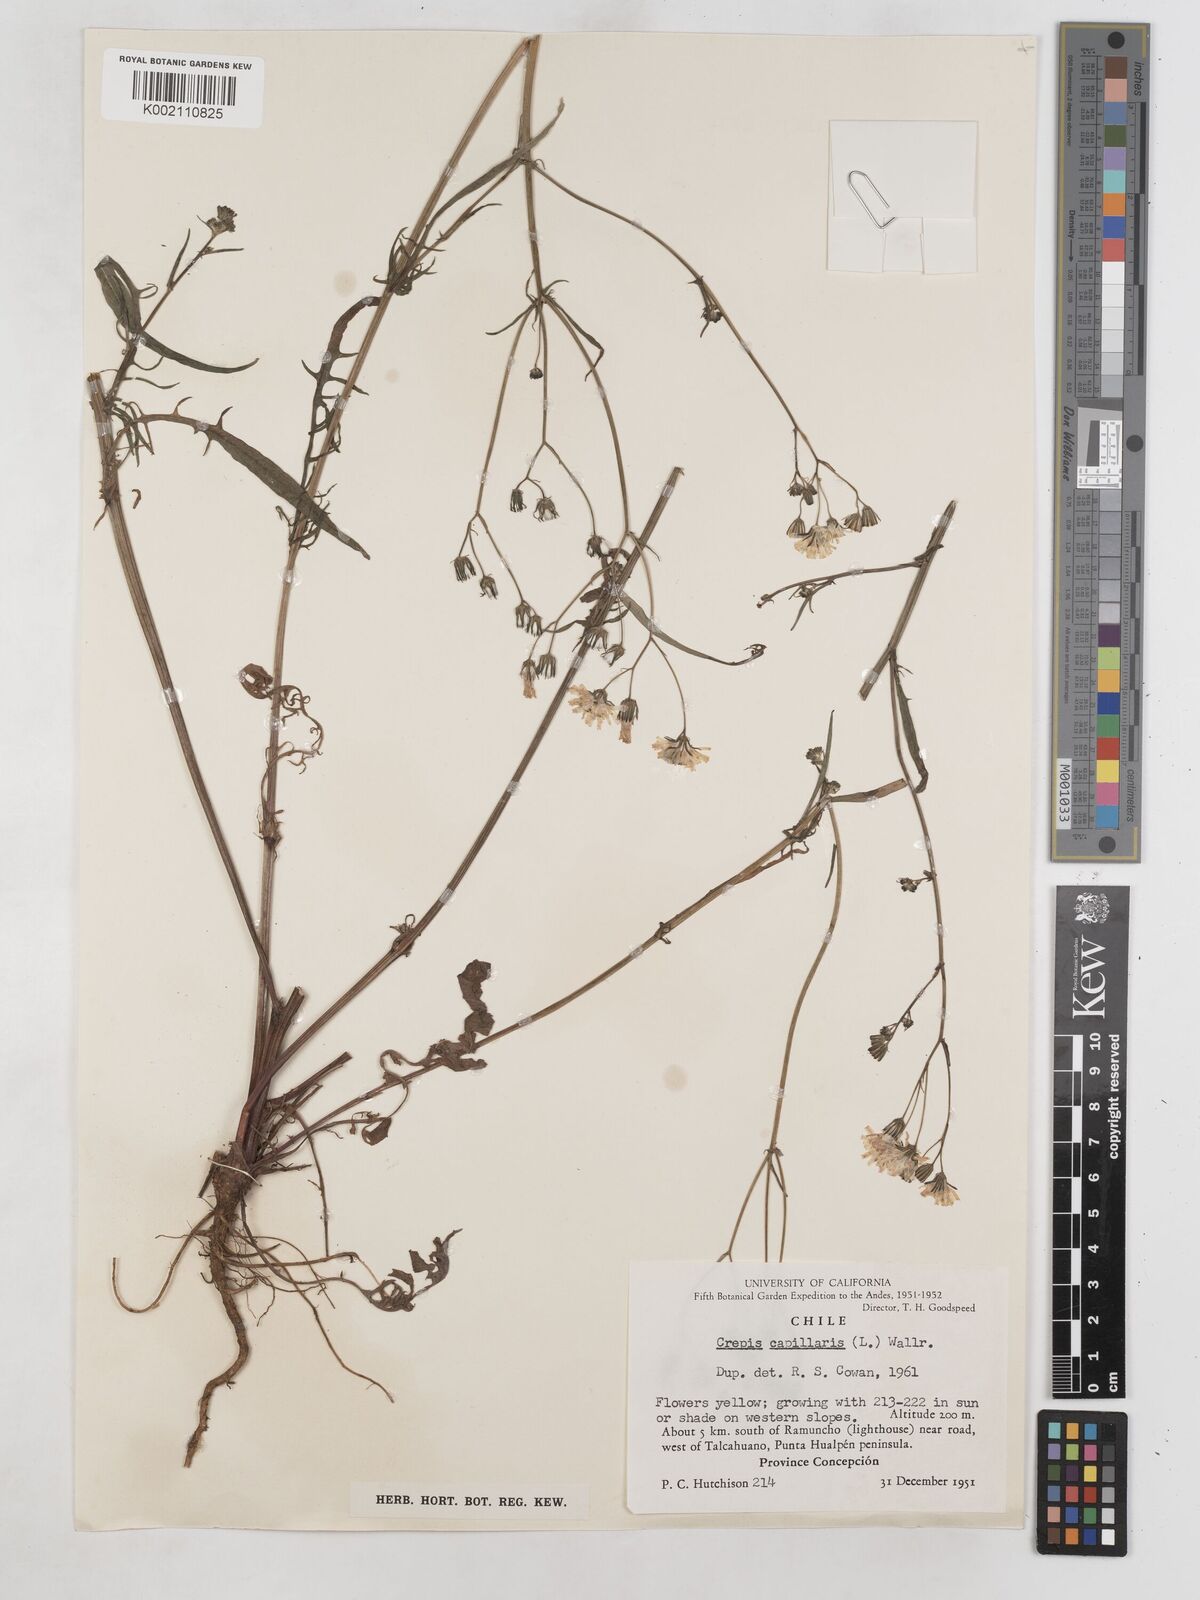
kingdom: Plantae
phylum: Tracheophyta
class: Magnoliopsida
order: Asterales
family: Asteraceae
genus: Crepis
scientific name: Crepis capillaris
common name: Smooth hawksbeard
